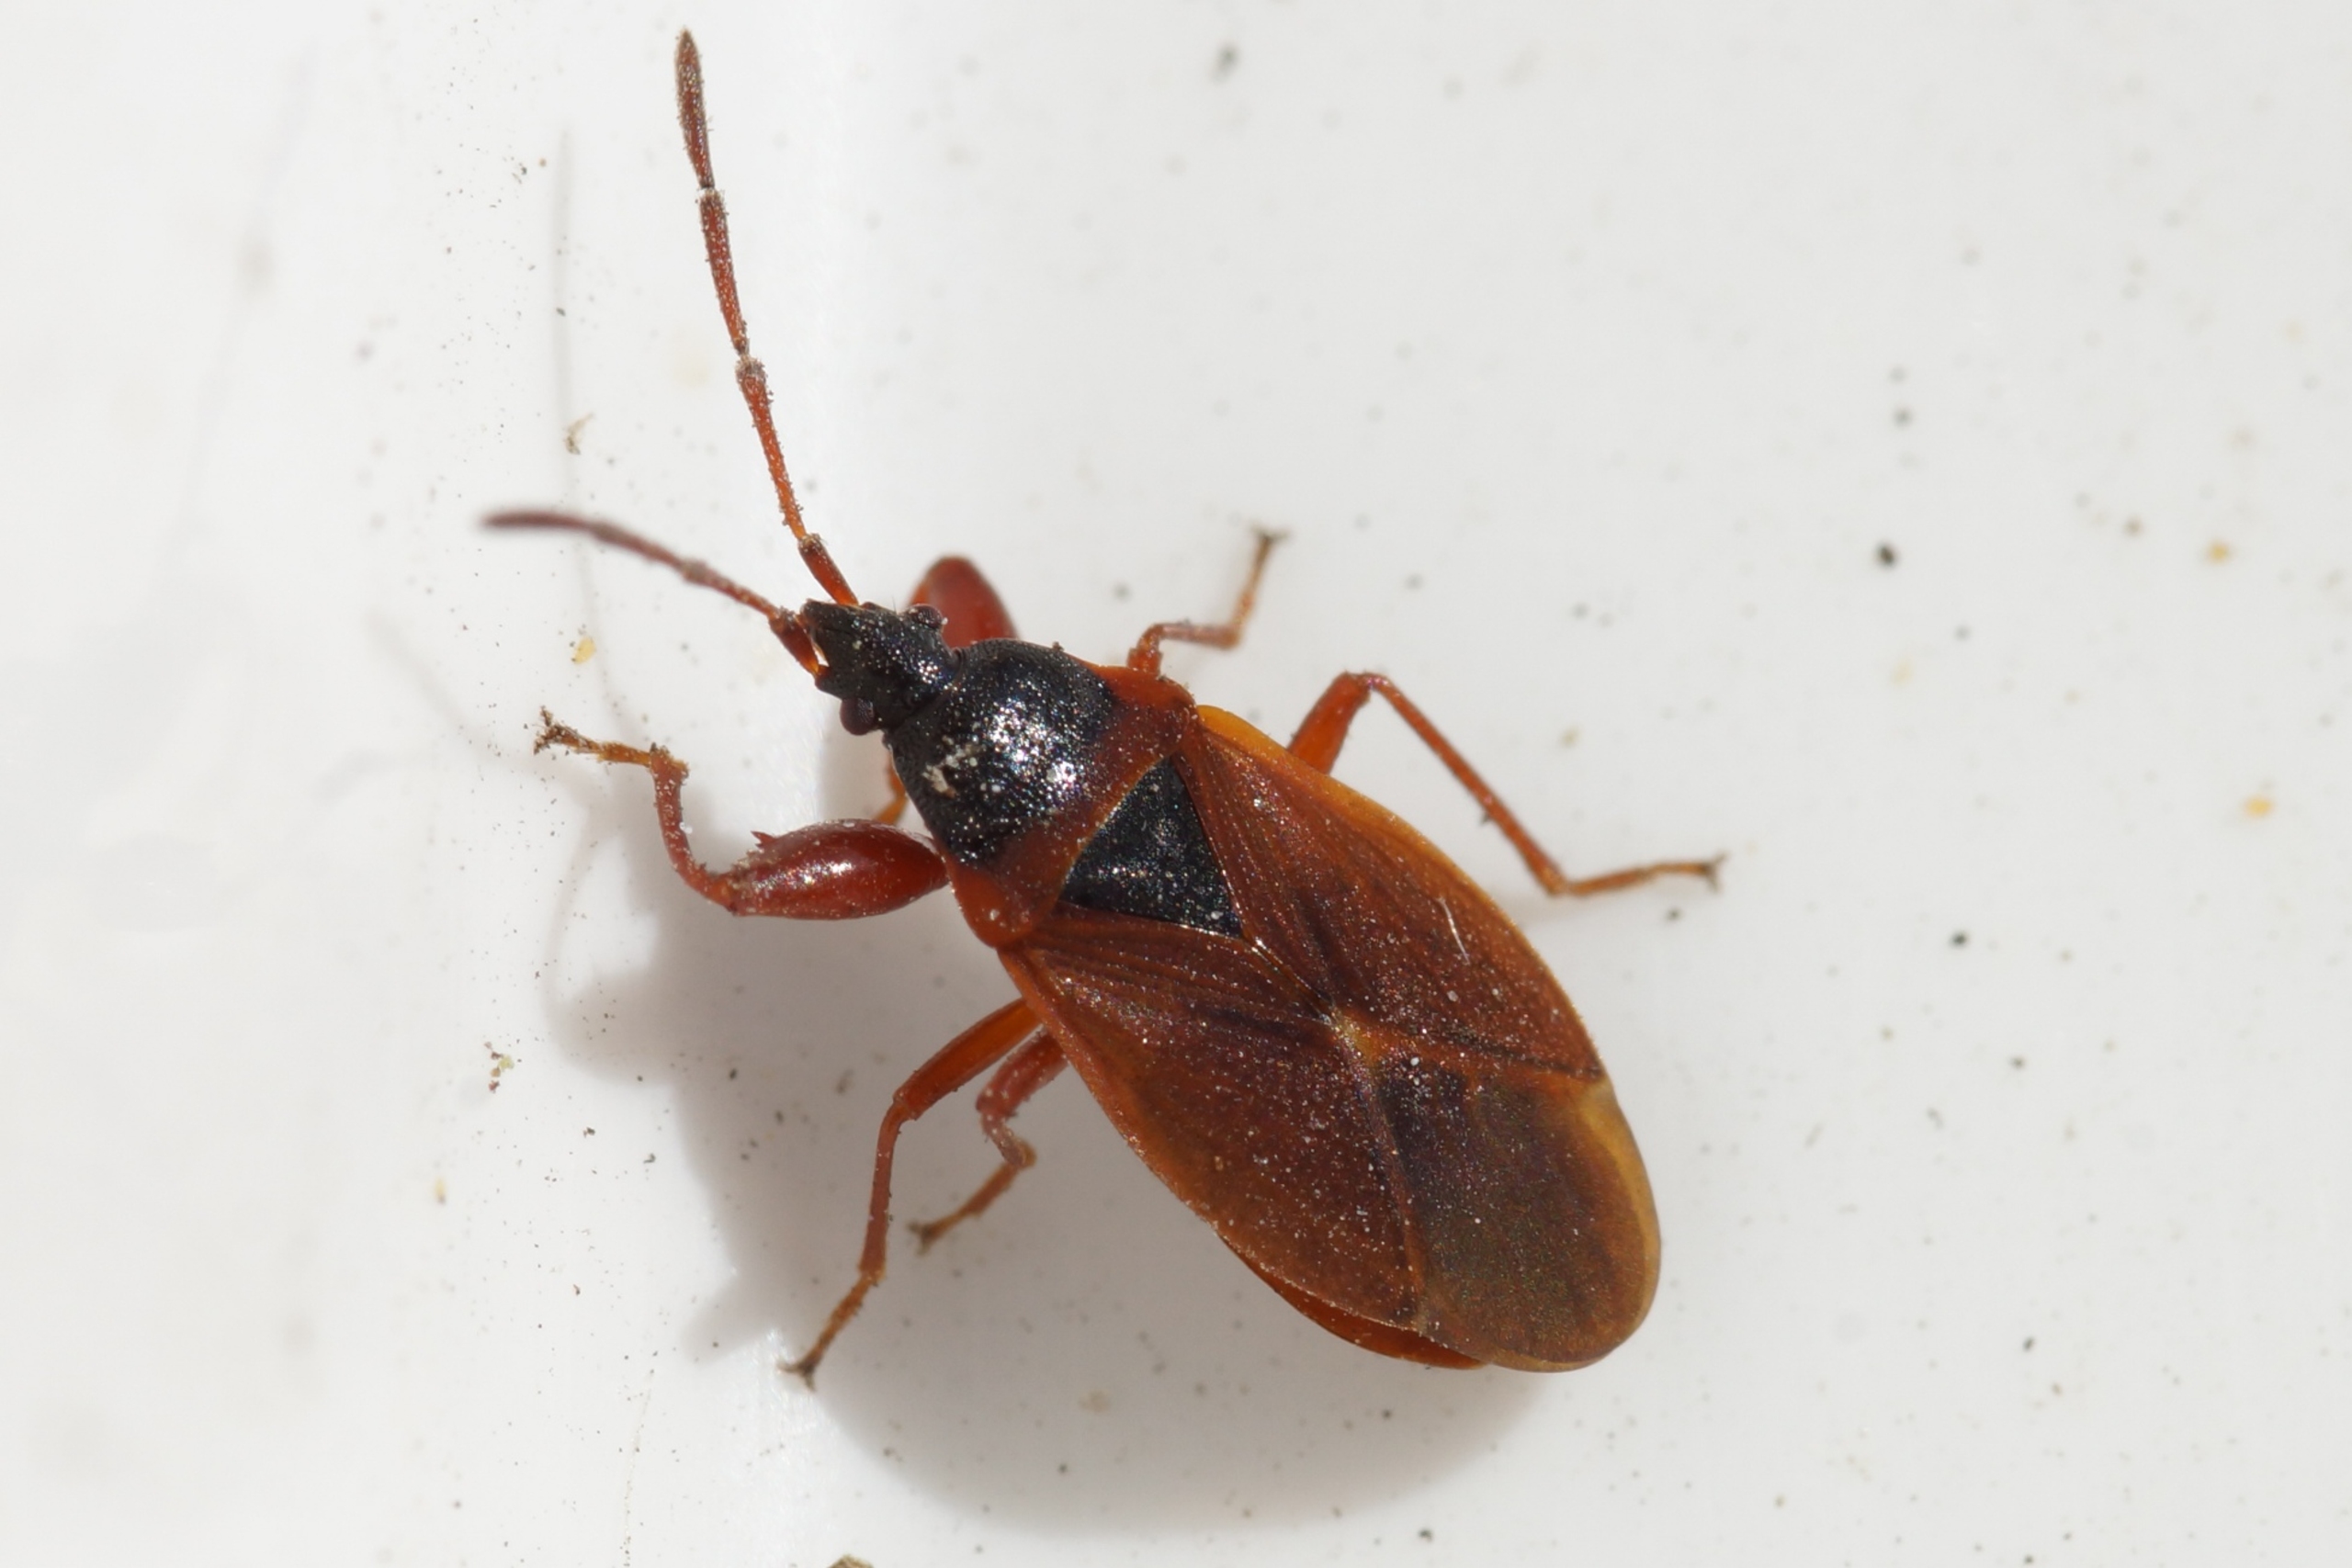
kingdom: Animalia
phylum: Arthropoda
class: Insecta
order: Hemiptera
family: Rhyparochromidae
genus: Gastrodes
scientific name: Gastrodes grossipes
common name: Fyrrekogletæge
